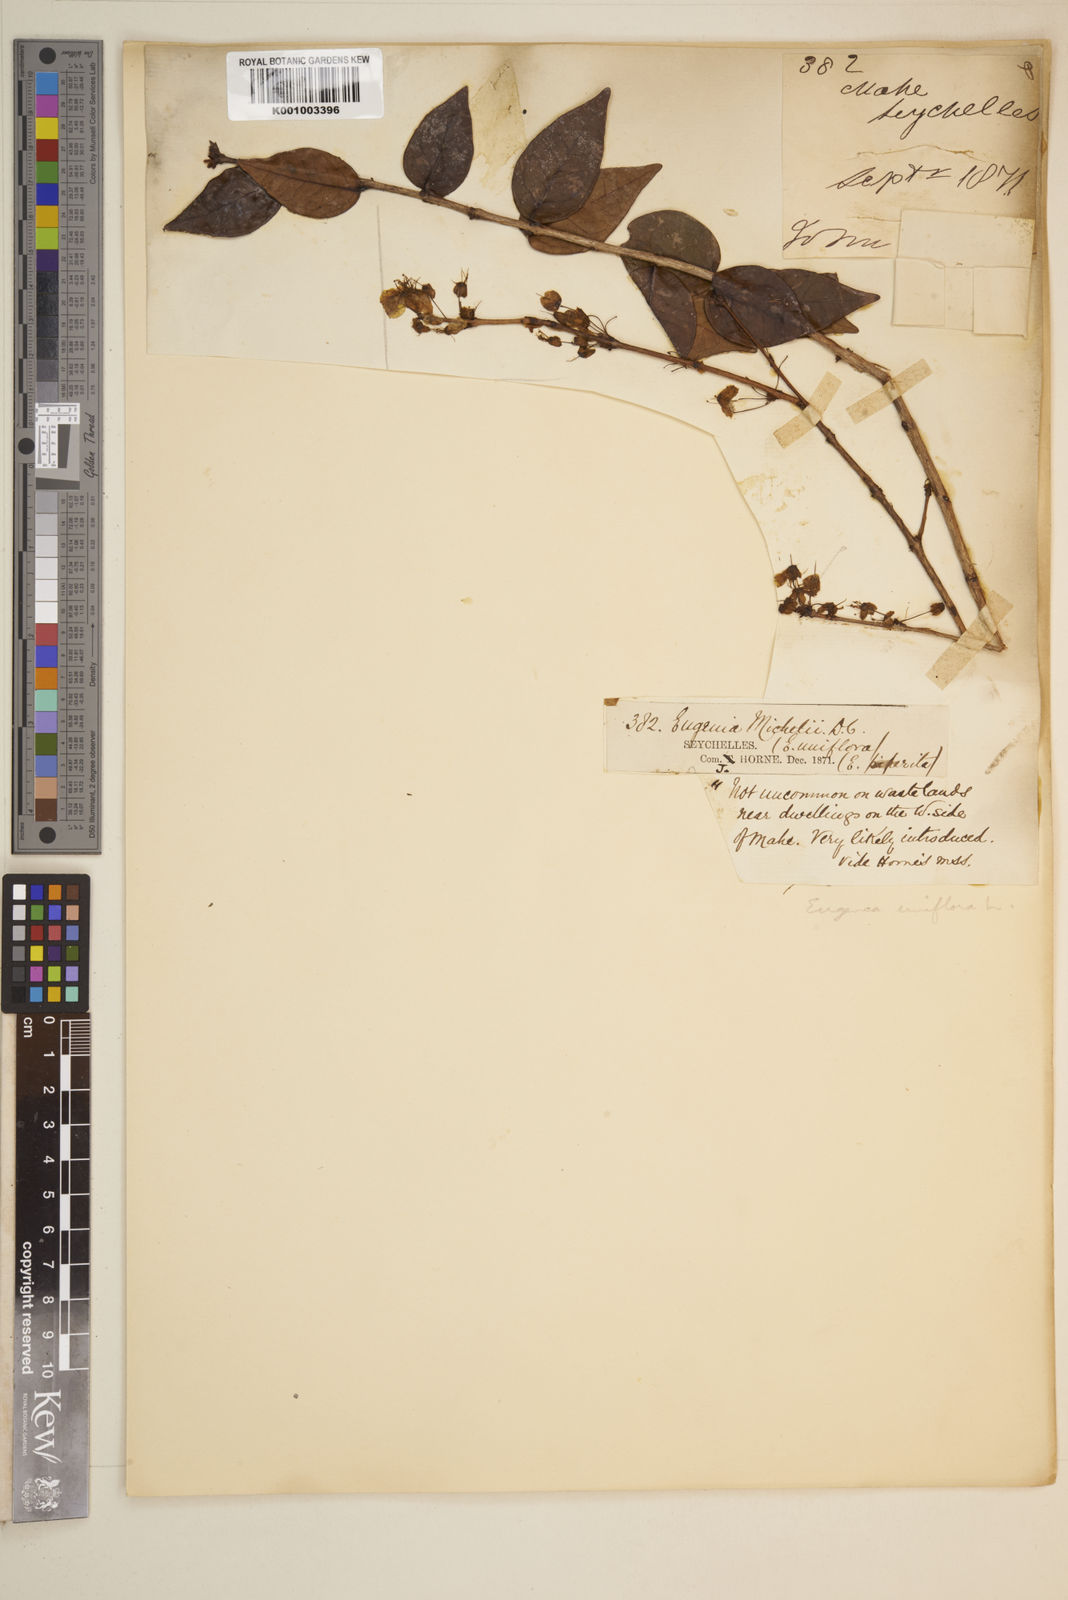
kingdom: Plantae
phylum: Tracheophyta
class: Magnoliopsida
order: Myrtales
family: Myrtaceae
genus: Eugenia
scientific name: Eugenia uniflora
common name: Surinam cherry
